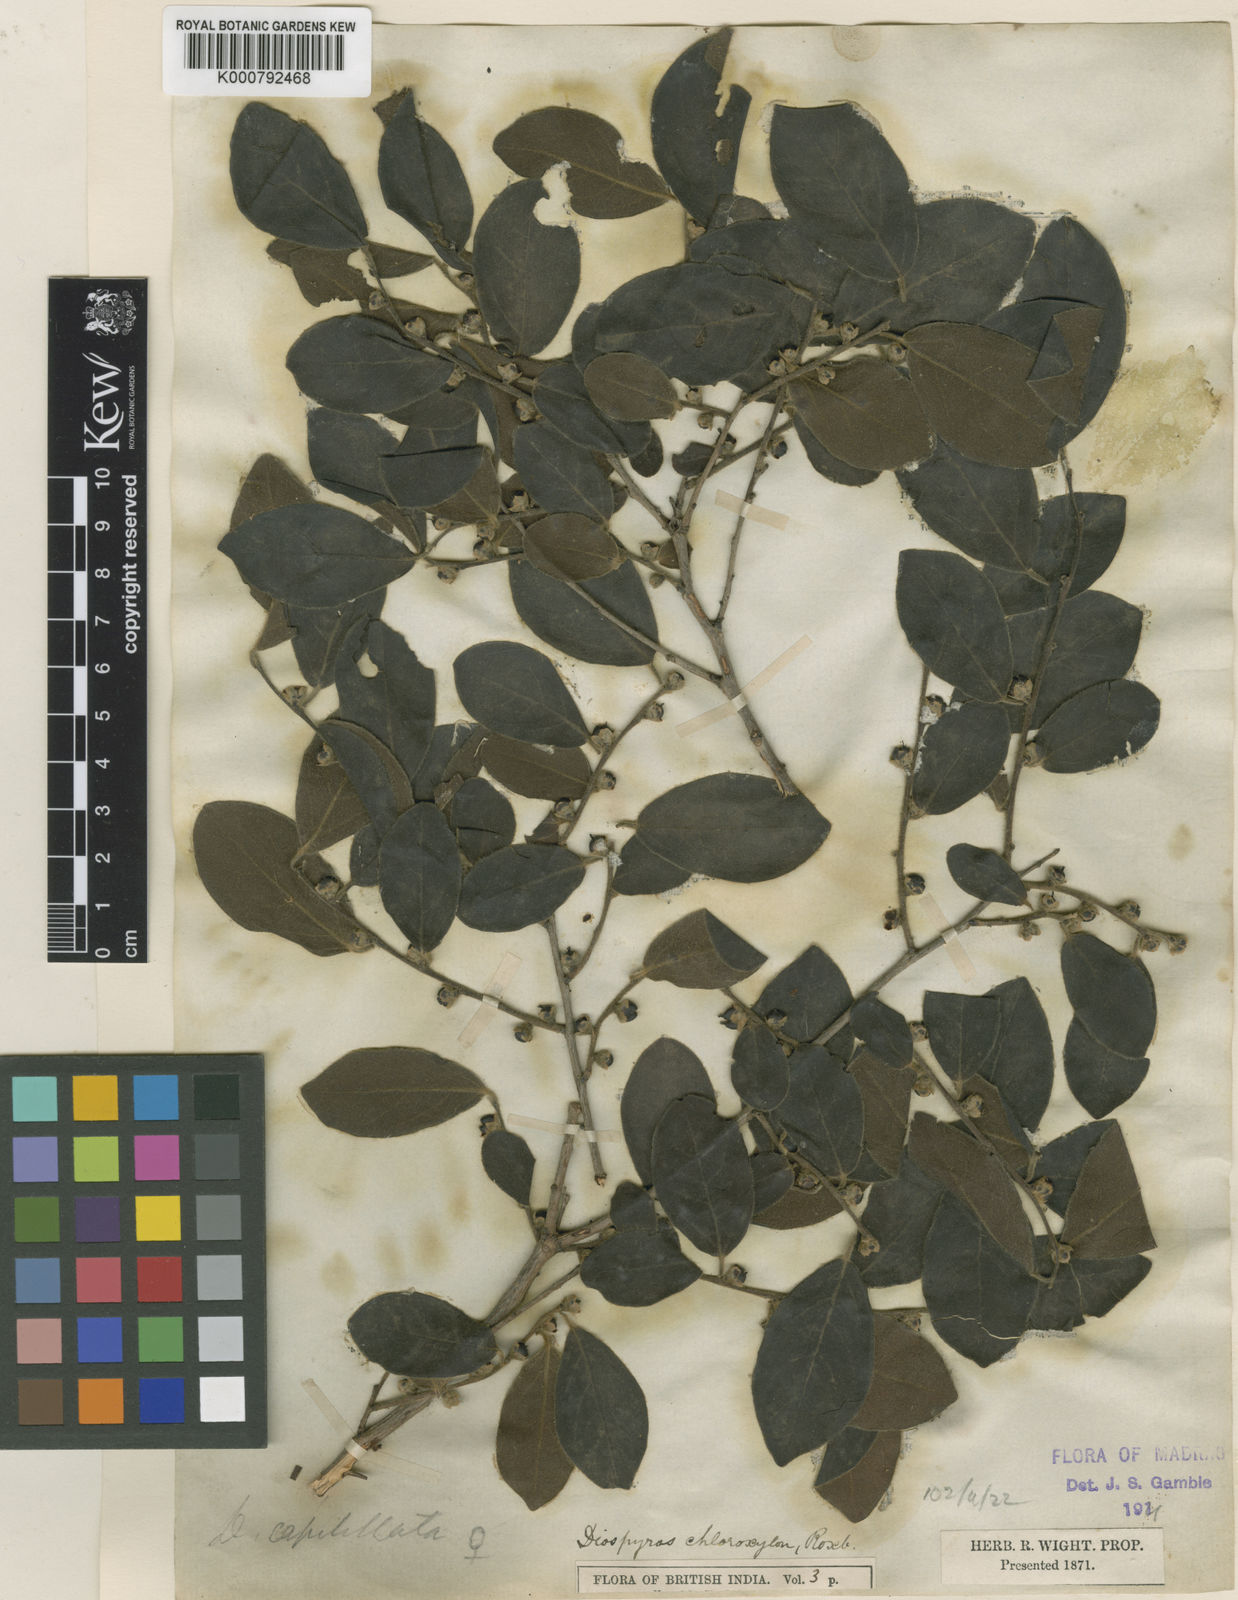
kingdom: Plantae
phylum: Tracheophyta
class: Magnoliopsida
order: Ericales
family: Ebenaceae
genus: Diospyros
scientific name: Diospyros chloroxylon
